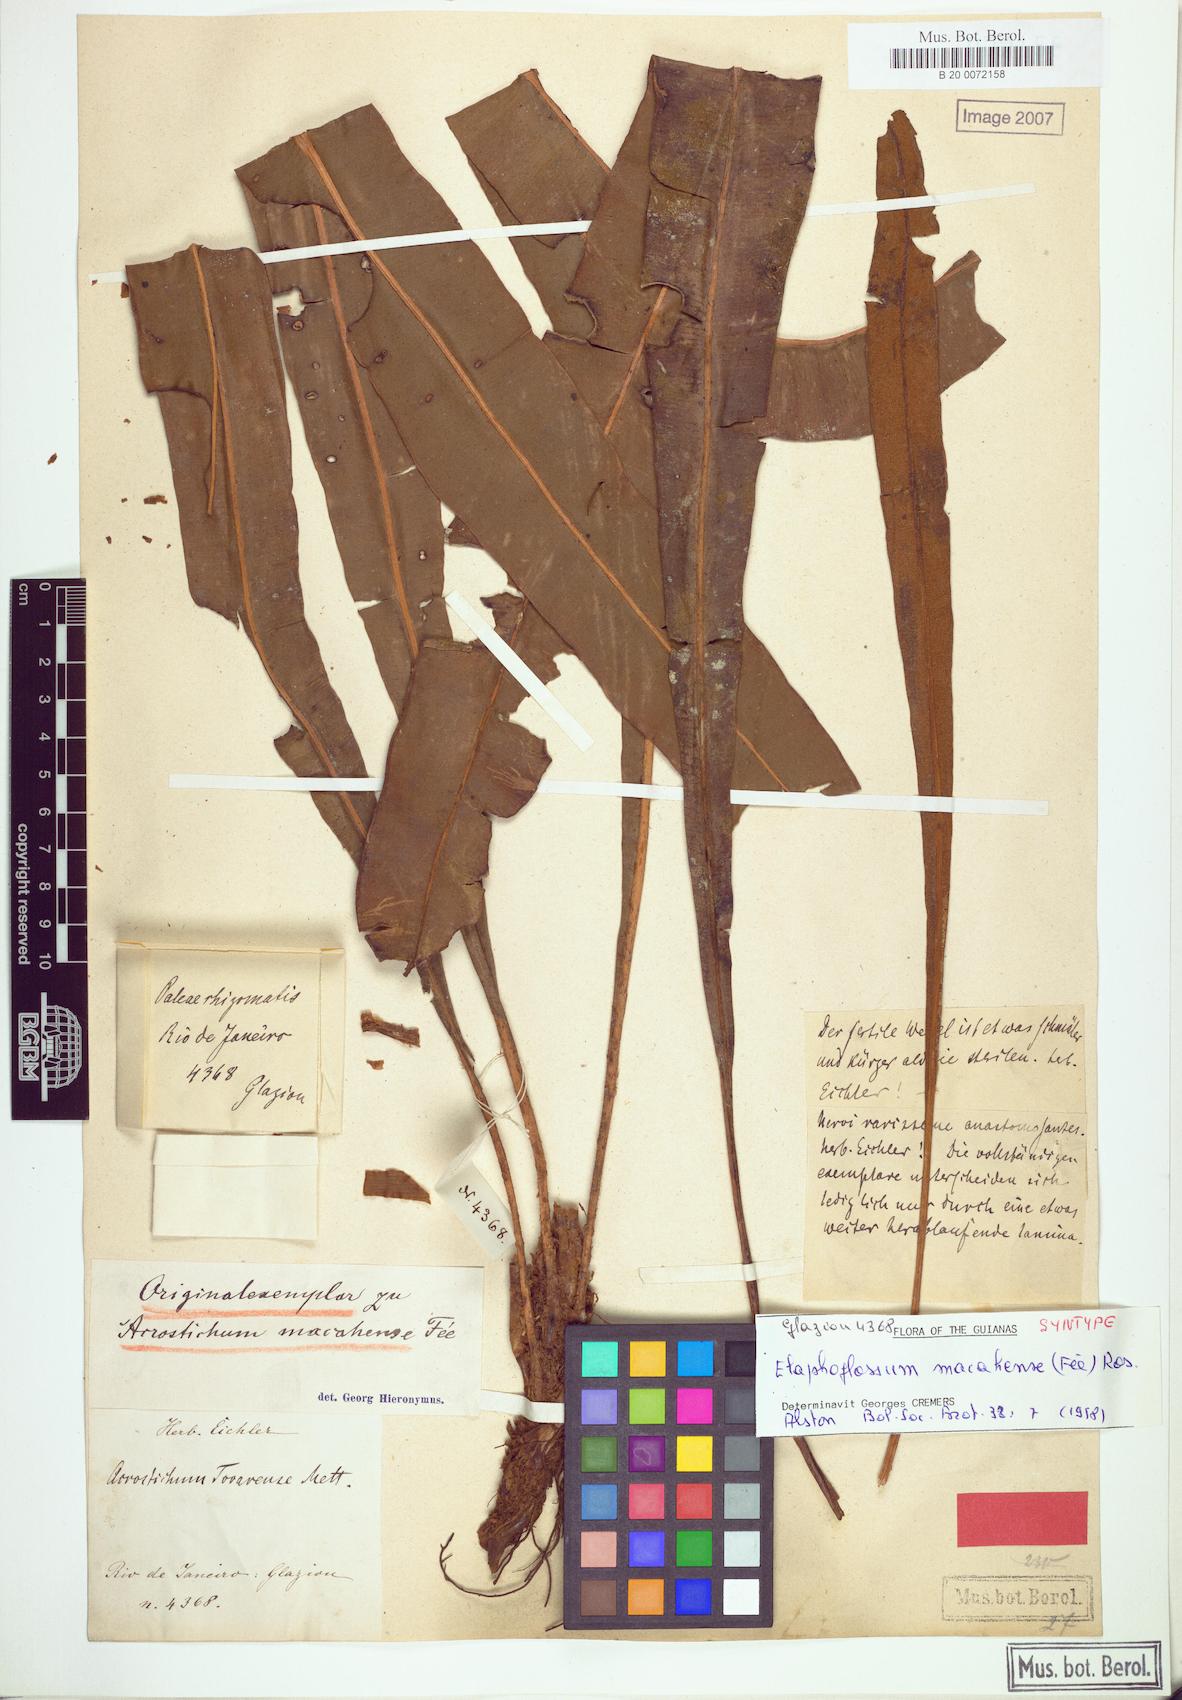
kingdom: Plantae
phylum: Tracheophyta
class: Polypodiopsida
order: Polypodiales
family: Dryopteridaceae
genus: Elaphoglossum
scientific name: Elaphoglossum macahense
